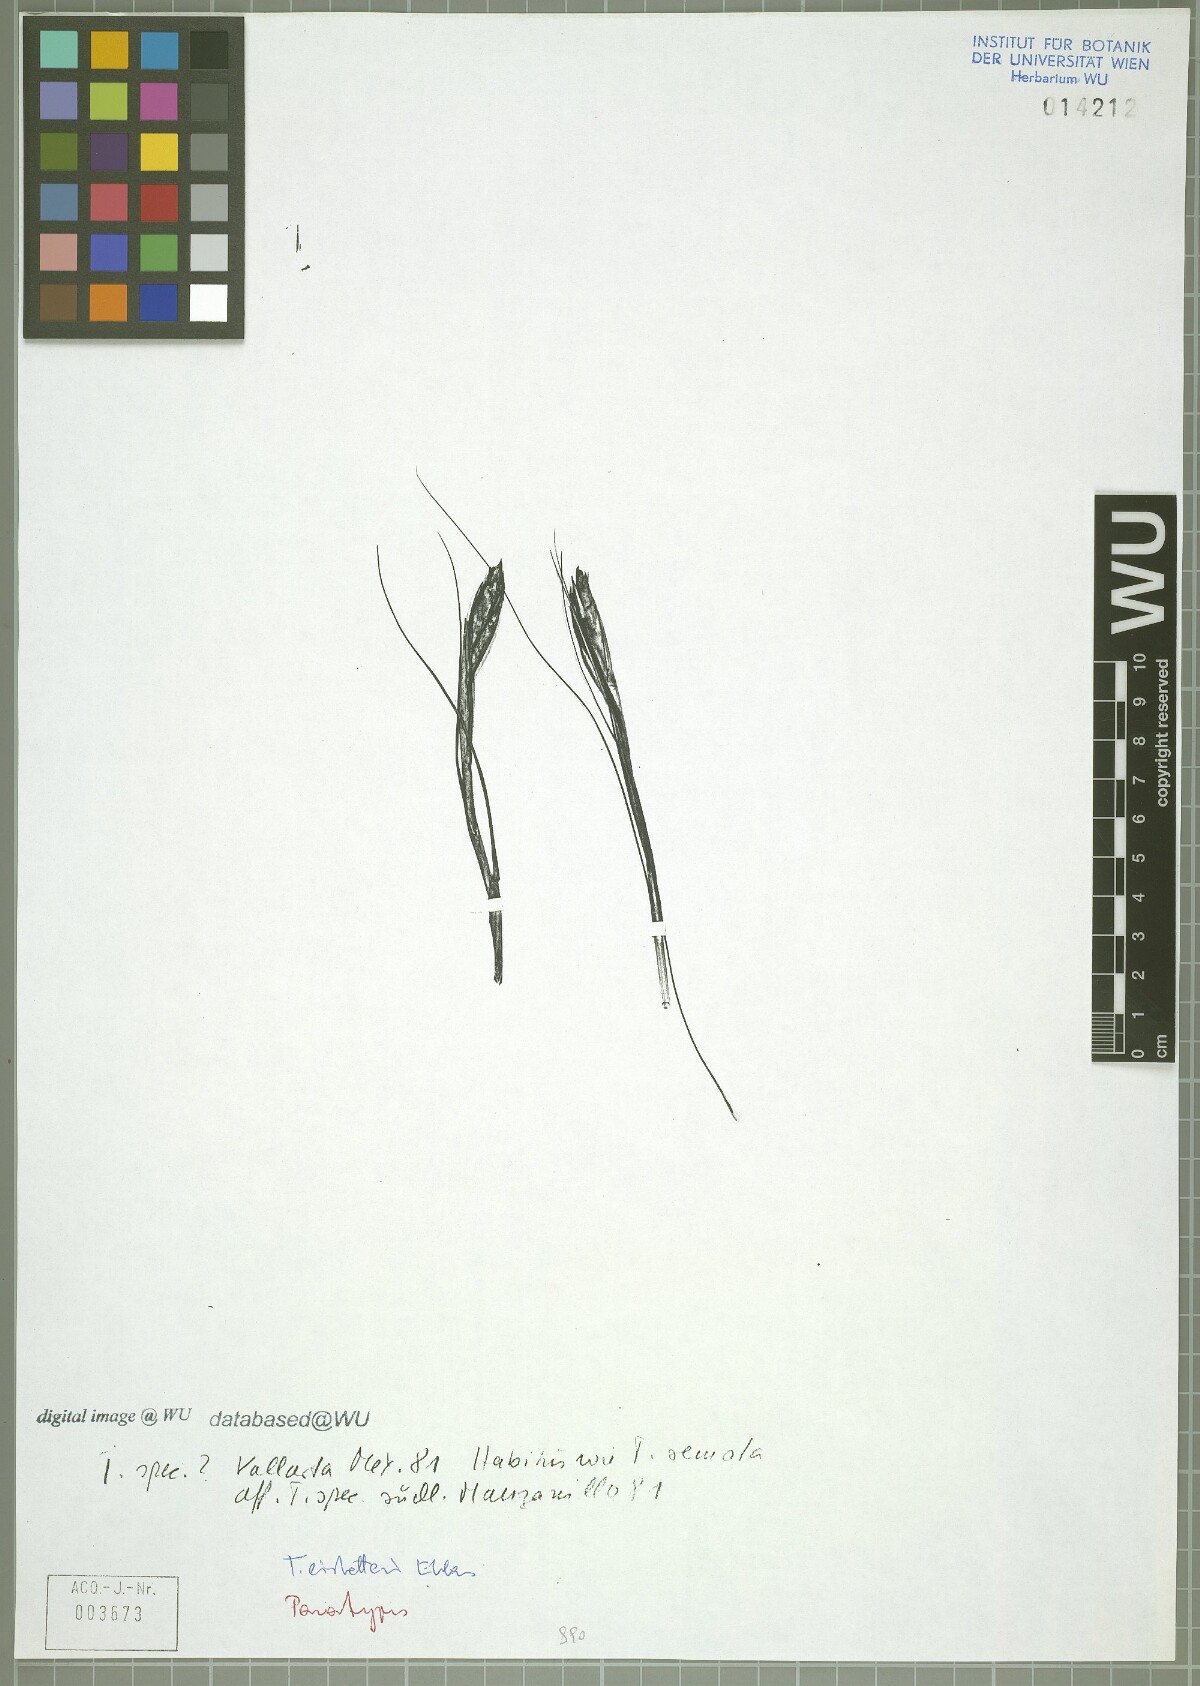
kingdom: Plantae
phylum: Tracheophyta
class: Liliopsida
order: Poales
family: Bromeliaceae
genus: Tillandsia
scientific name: Tillandsia eistetteri
